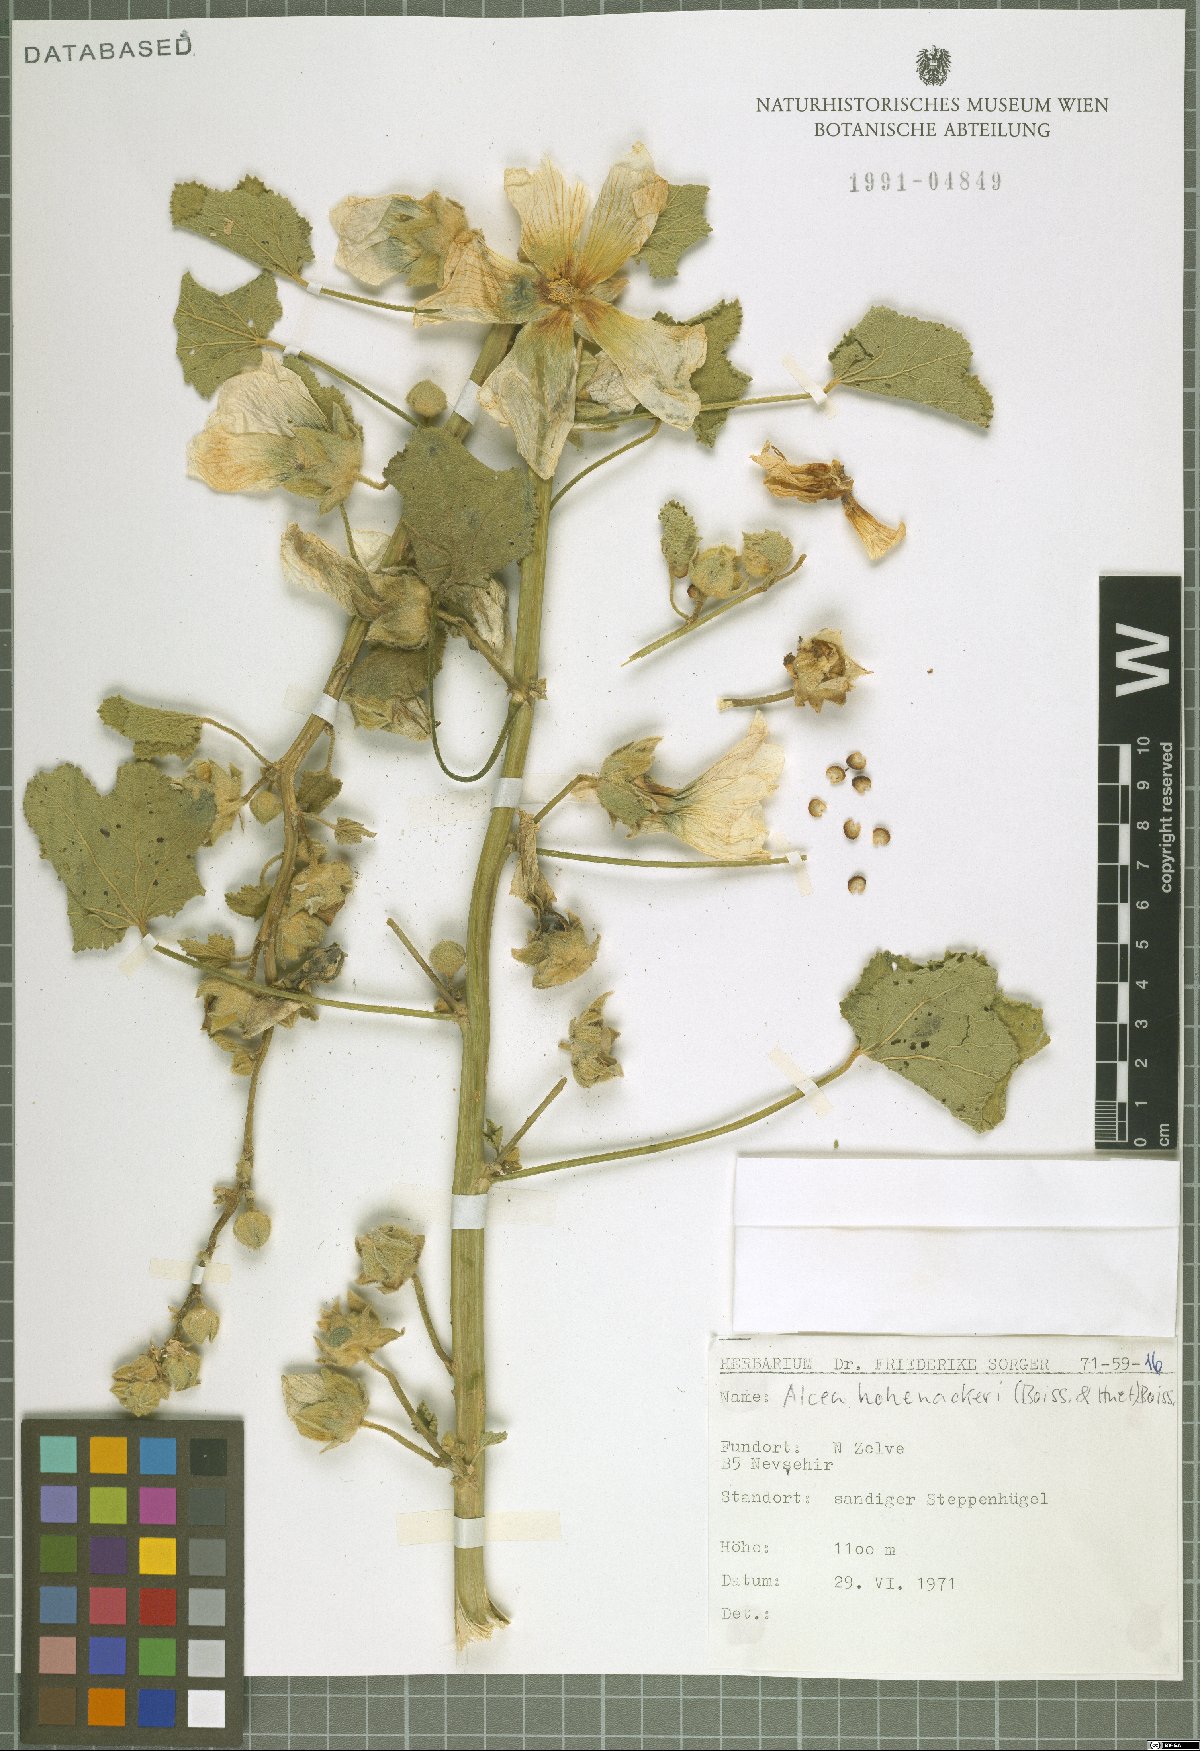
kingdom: Plantae
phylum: Tracheophyta
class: Magnoliopsida
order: Malvales
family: Malvaceae
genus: Alcea
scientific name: Alcea kurdica
